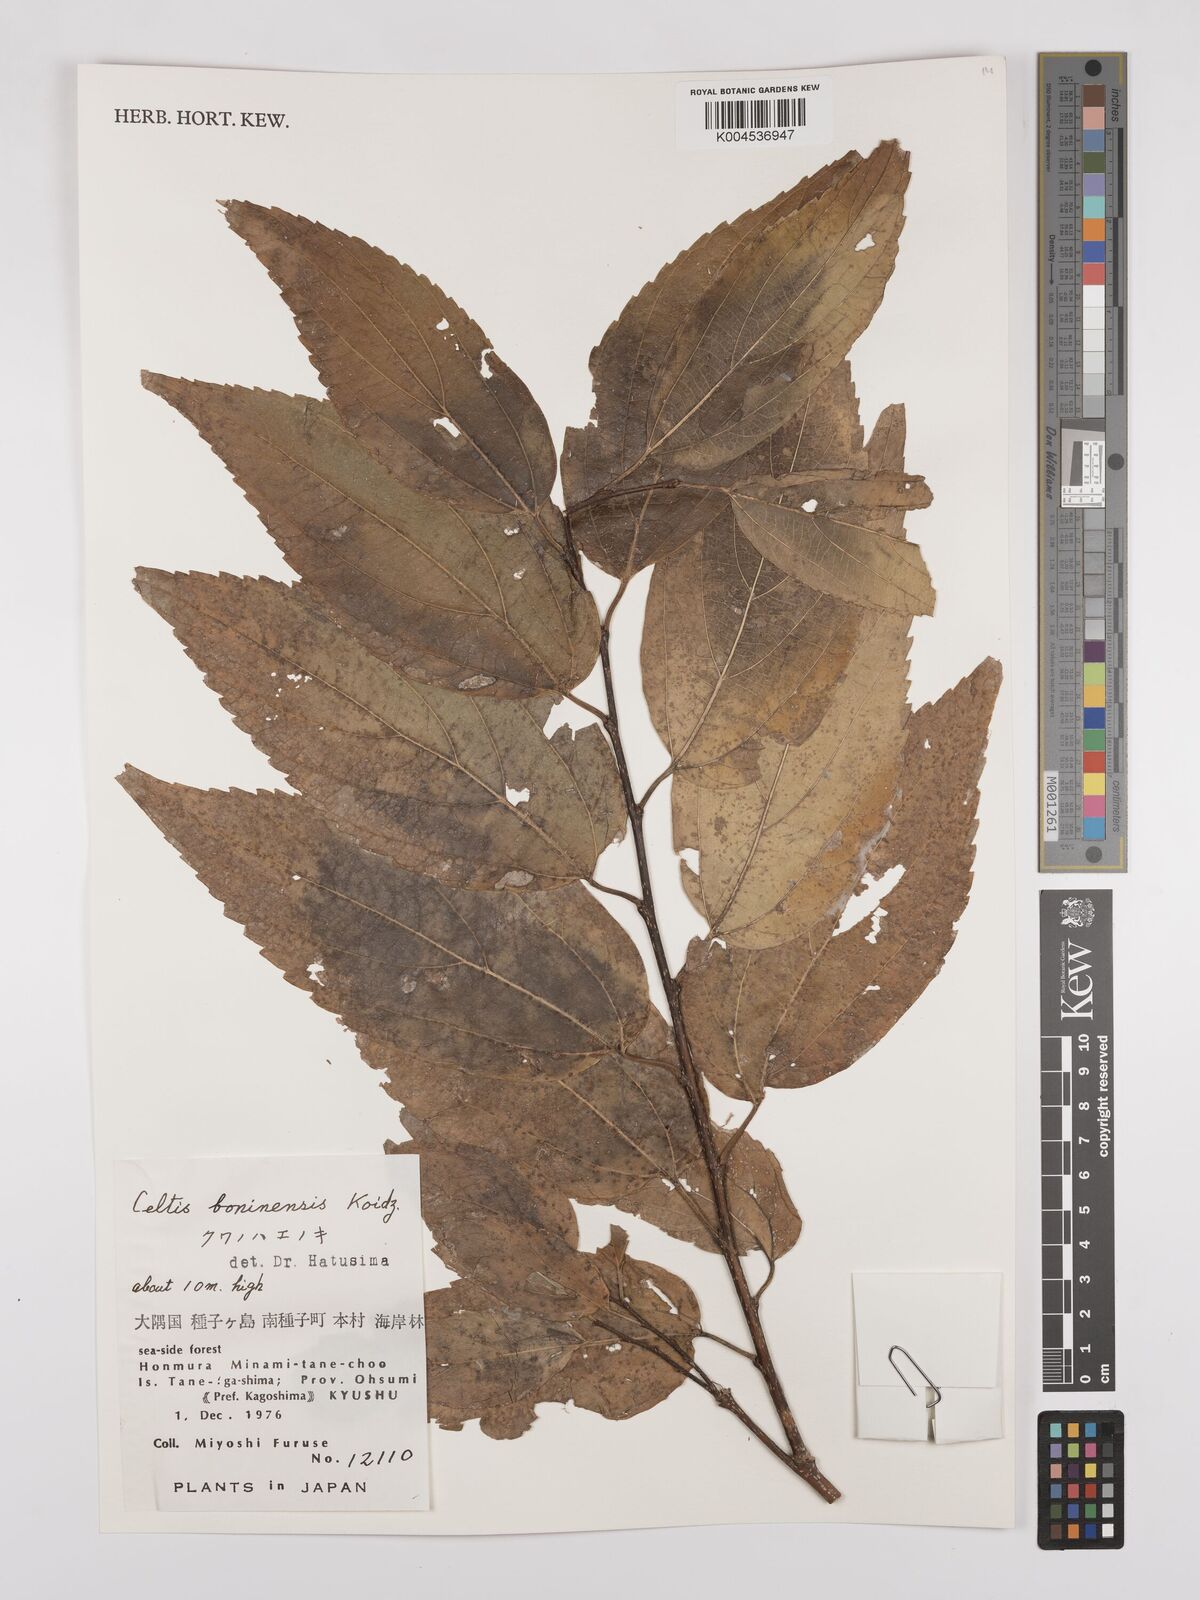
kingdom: Plantae
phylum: Tracheophyta
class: Magnoliopsida
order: Rosales
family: Cannabaceae
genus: Celtis
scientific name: Celtis boninensis
